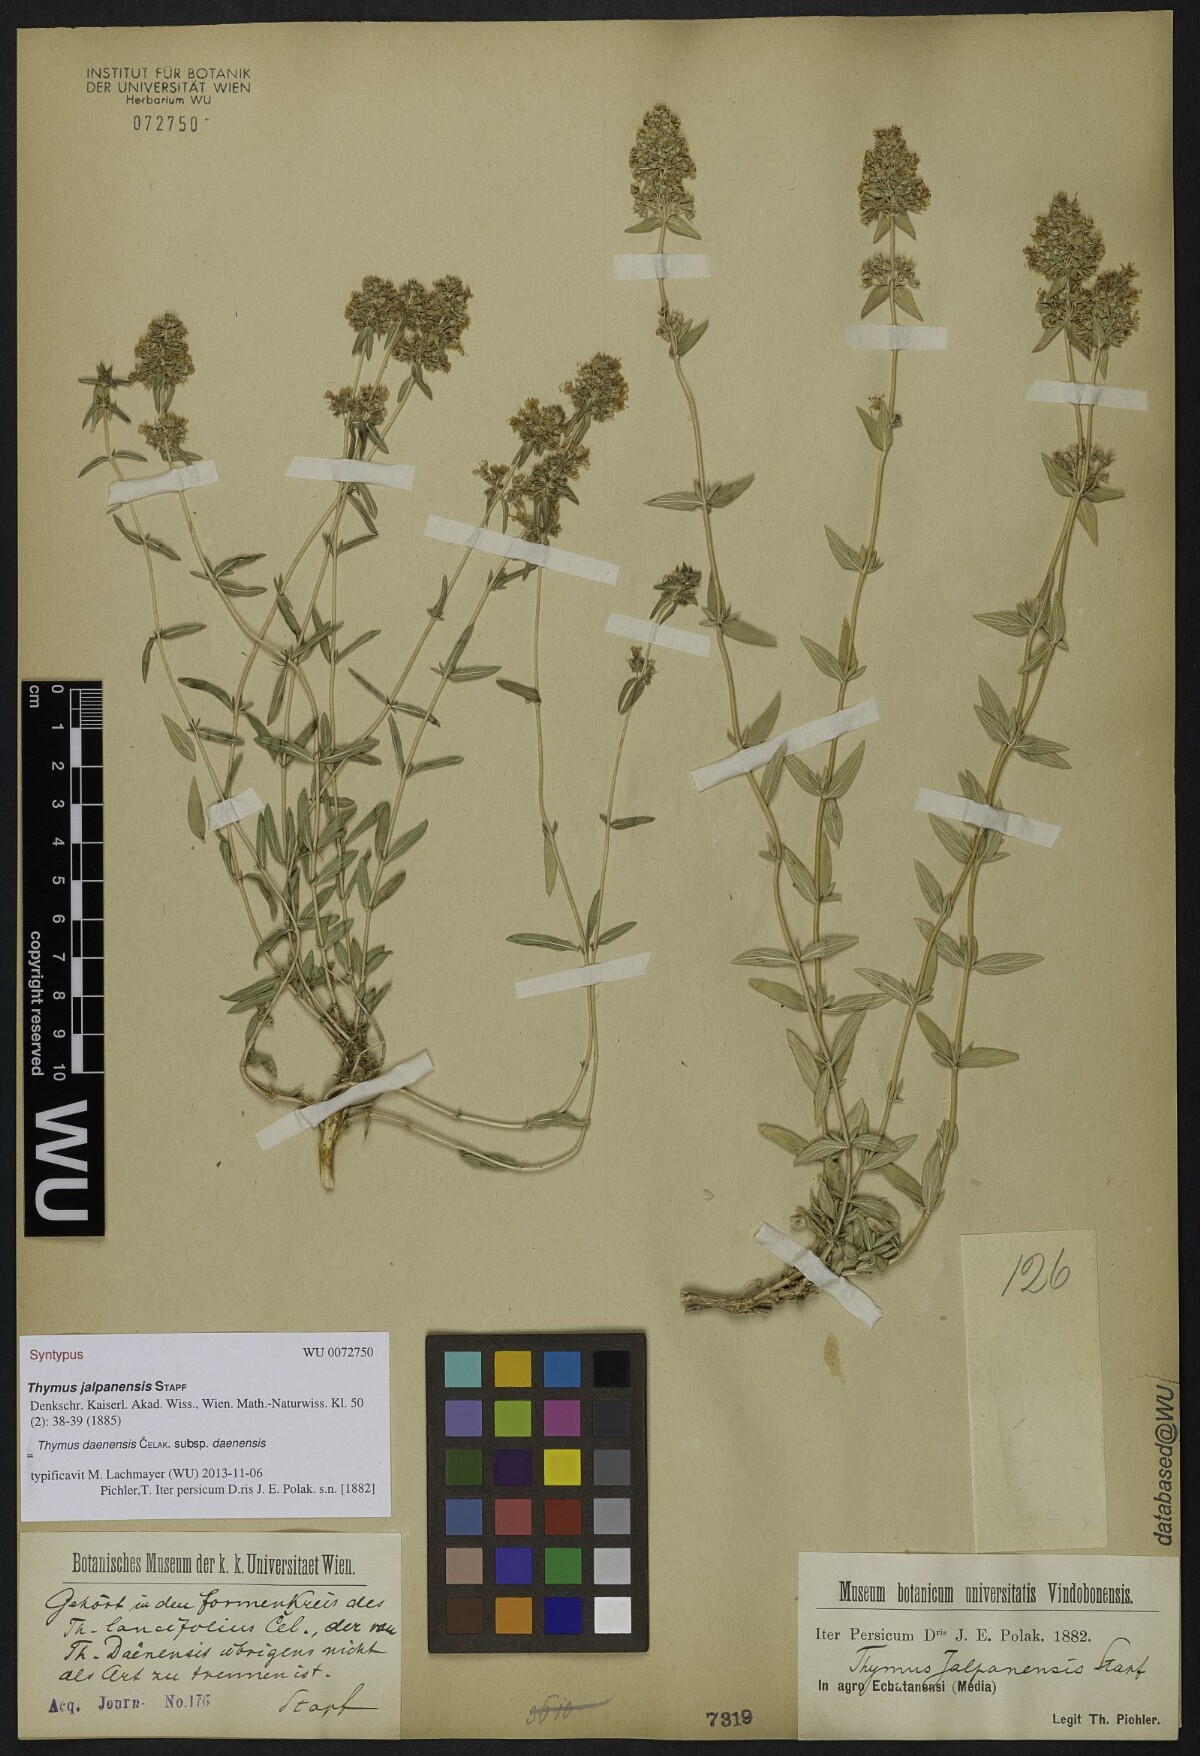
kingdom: Plantae
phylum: Tracheophyta
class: Magnoliopsida
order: Lamiales
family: Lamiaceae
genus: Thymus
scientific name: Thymus daenensis
